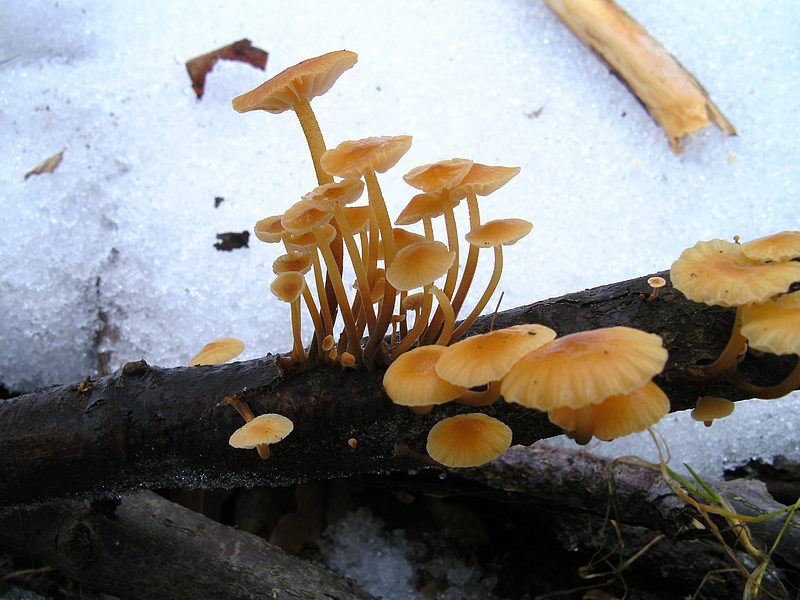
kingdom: Fungi
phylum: Basidiomycota
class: Agaricomycetes
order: Agaricales
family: Physalacriaceae
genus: Flammulina
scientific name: Flammulina elastica
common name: pile-fløjlsfod
